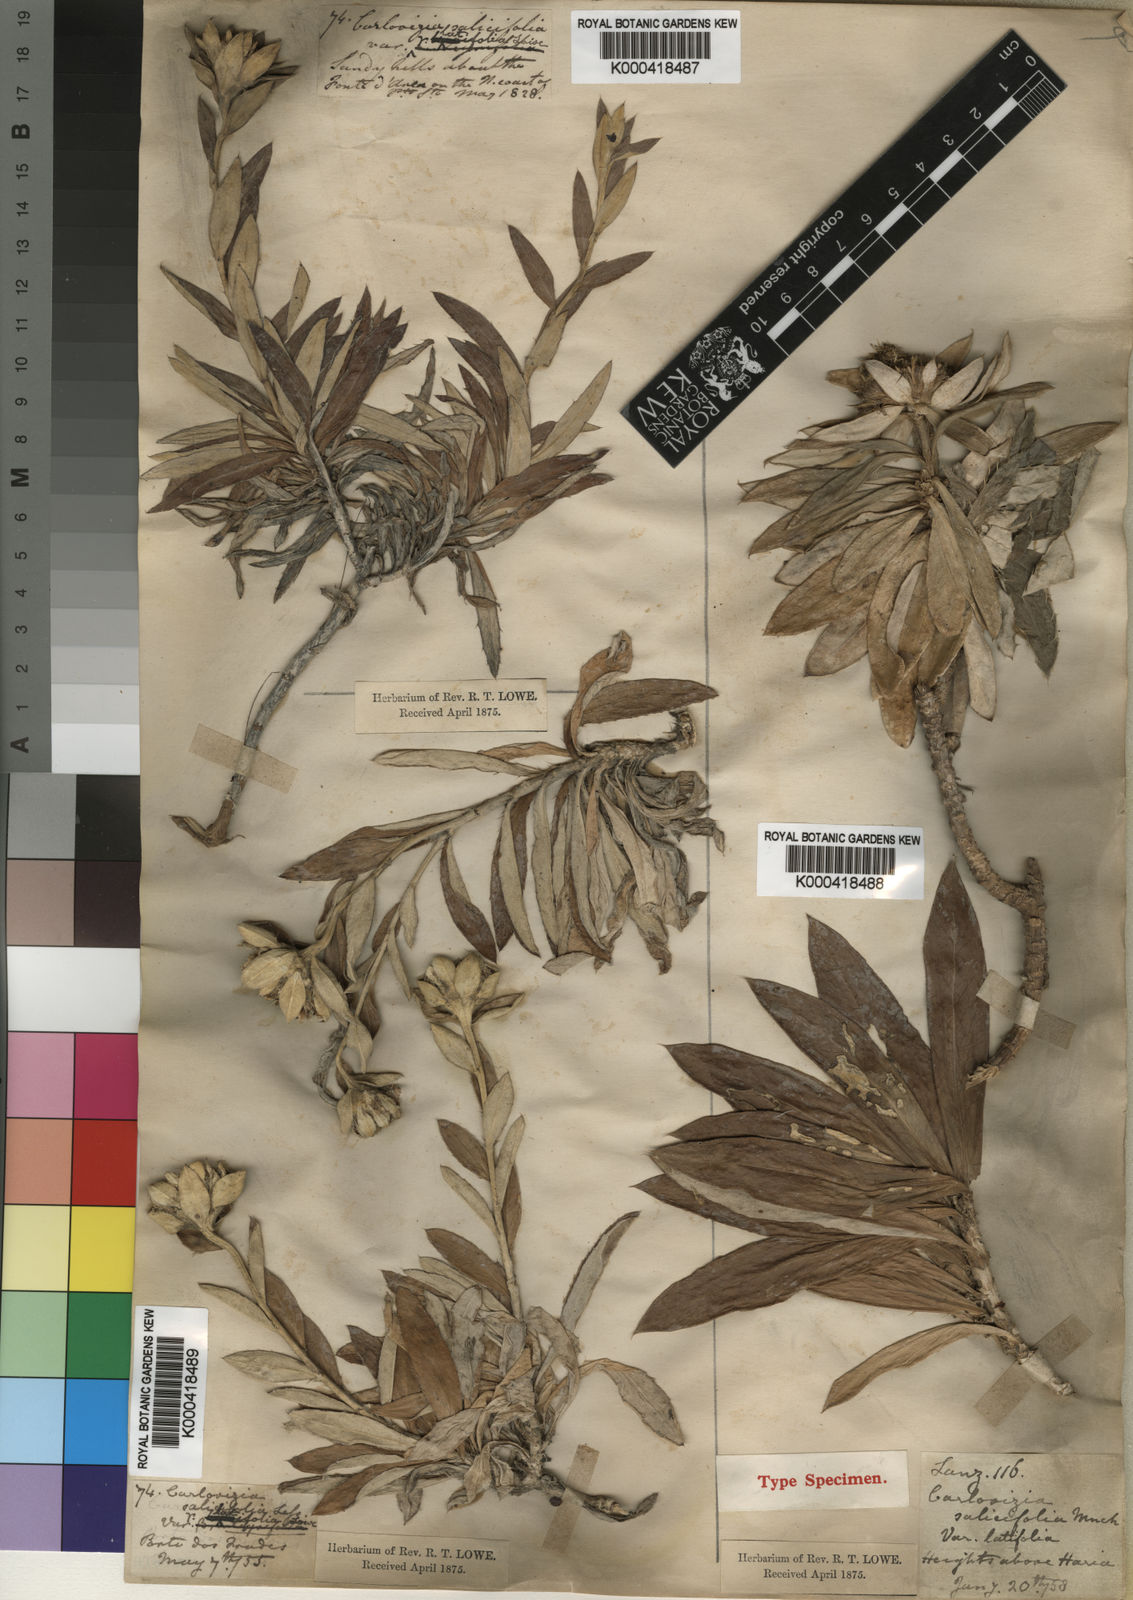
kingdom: Plantae
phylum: Tracheophyta
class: Magnoliopsida
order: Asterales
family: Asteraceae
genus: Carlina
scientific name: Carlina salicifolia
